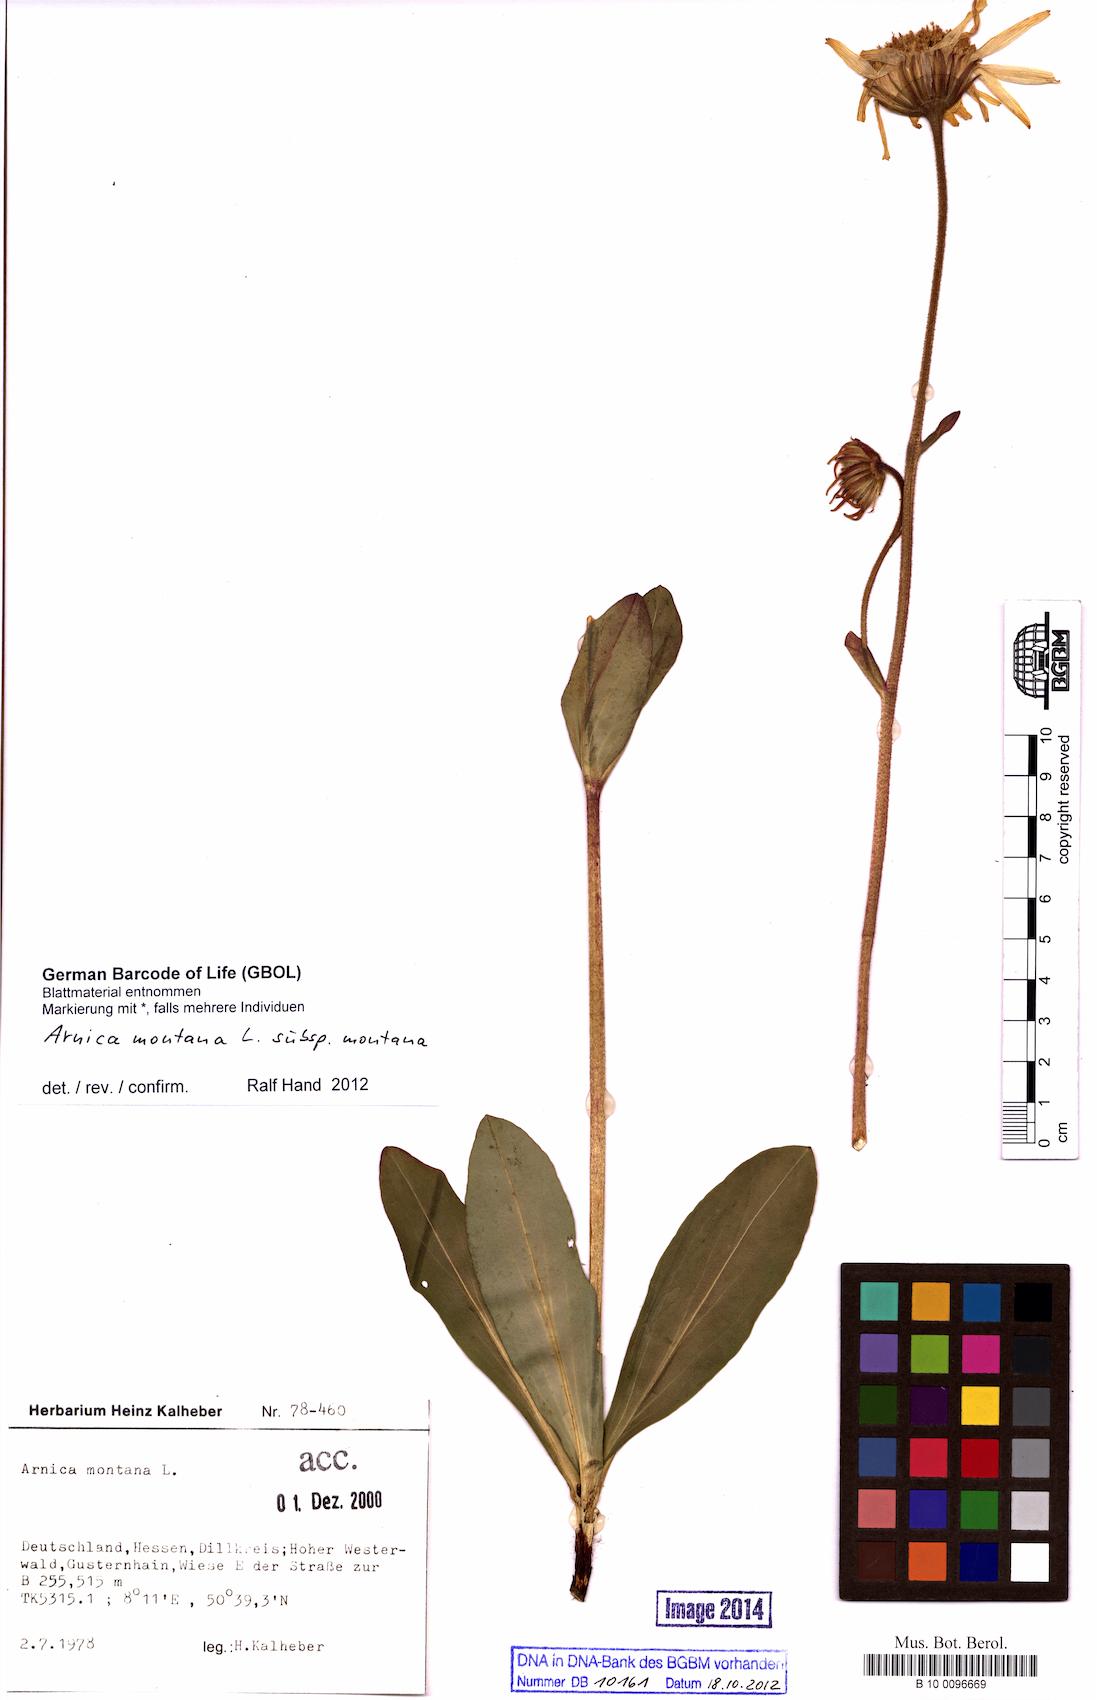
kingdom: Plantae
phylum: Tracheophyta
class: Magnoliopsida
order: Asterales
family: Asteraceae
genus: Arnica
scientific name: Arnica montana
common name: Leopard's bane
